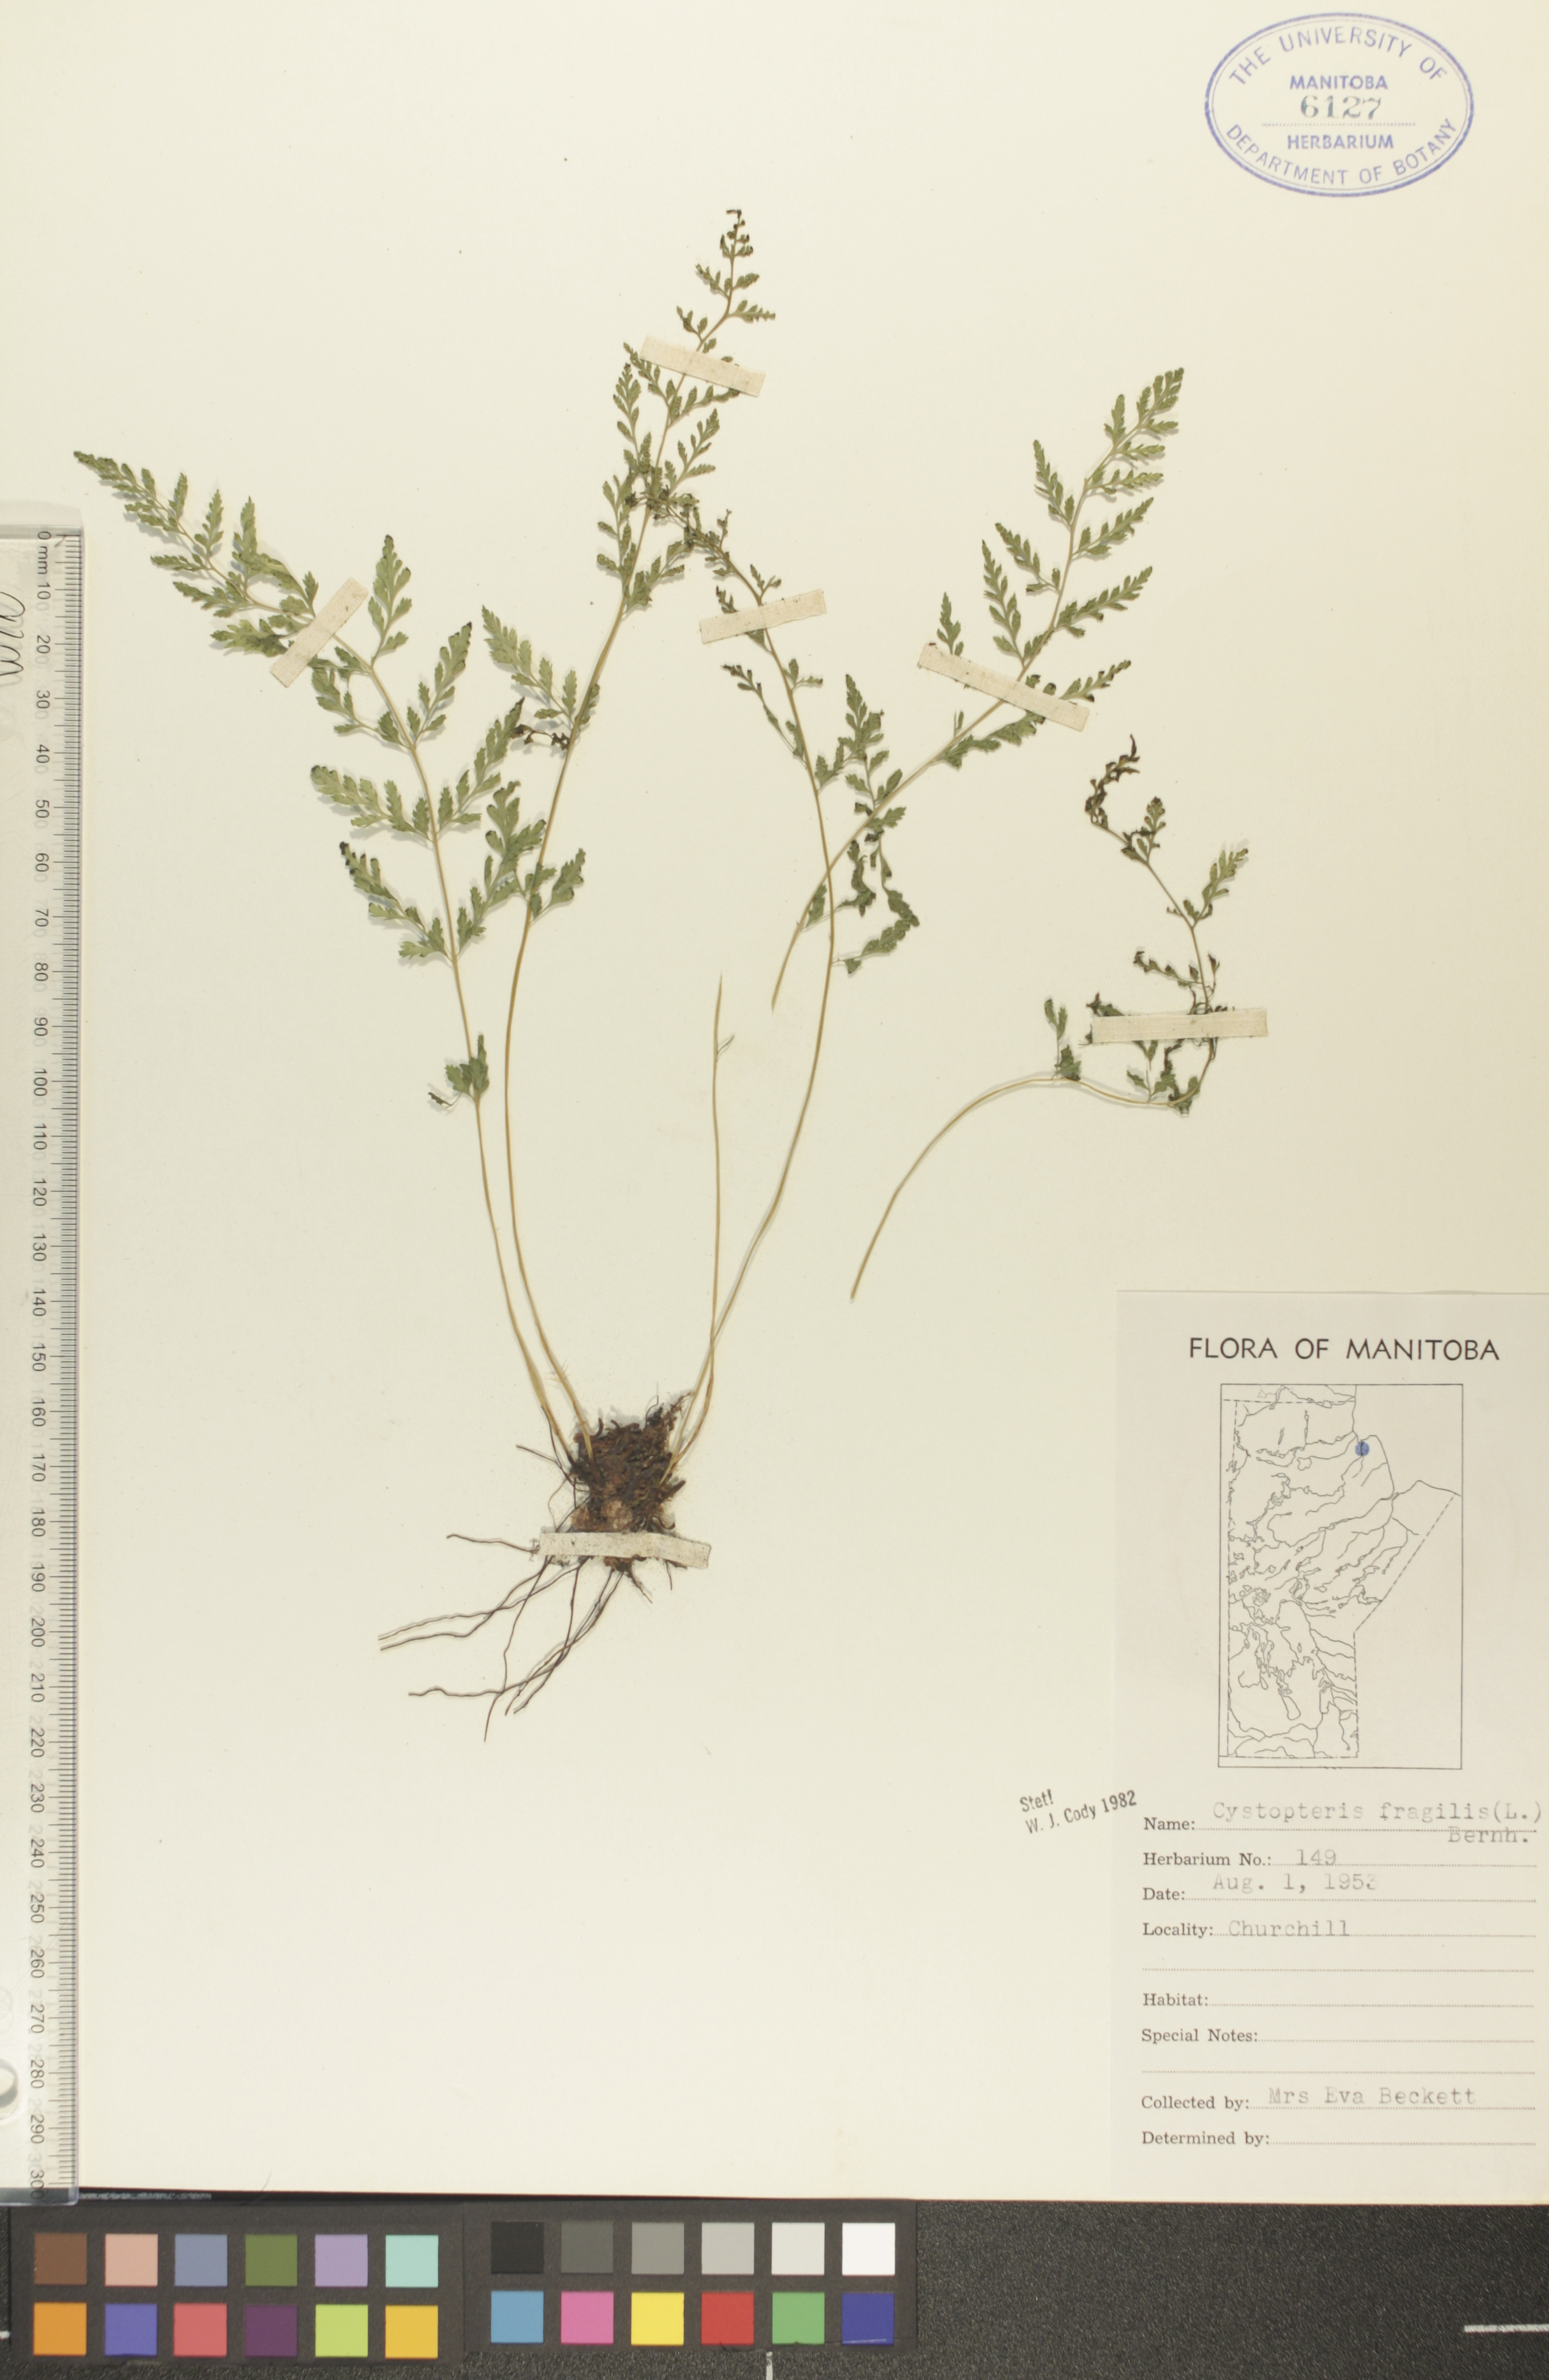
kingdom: Plantae
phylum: Tracheophyta
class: Polypodiopsida
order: Polypodiales
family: Cystopteridaceae
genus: Cystopteris
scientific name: Cystopteris tenuis
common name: Mackay's brittle fern
